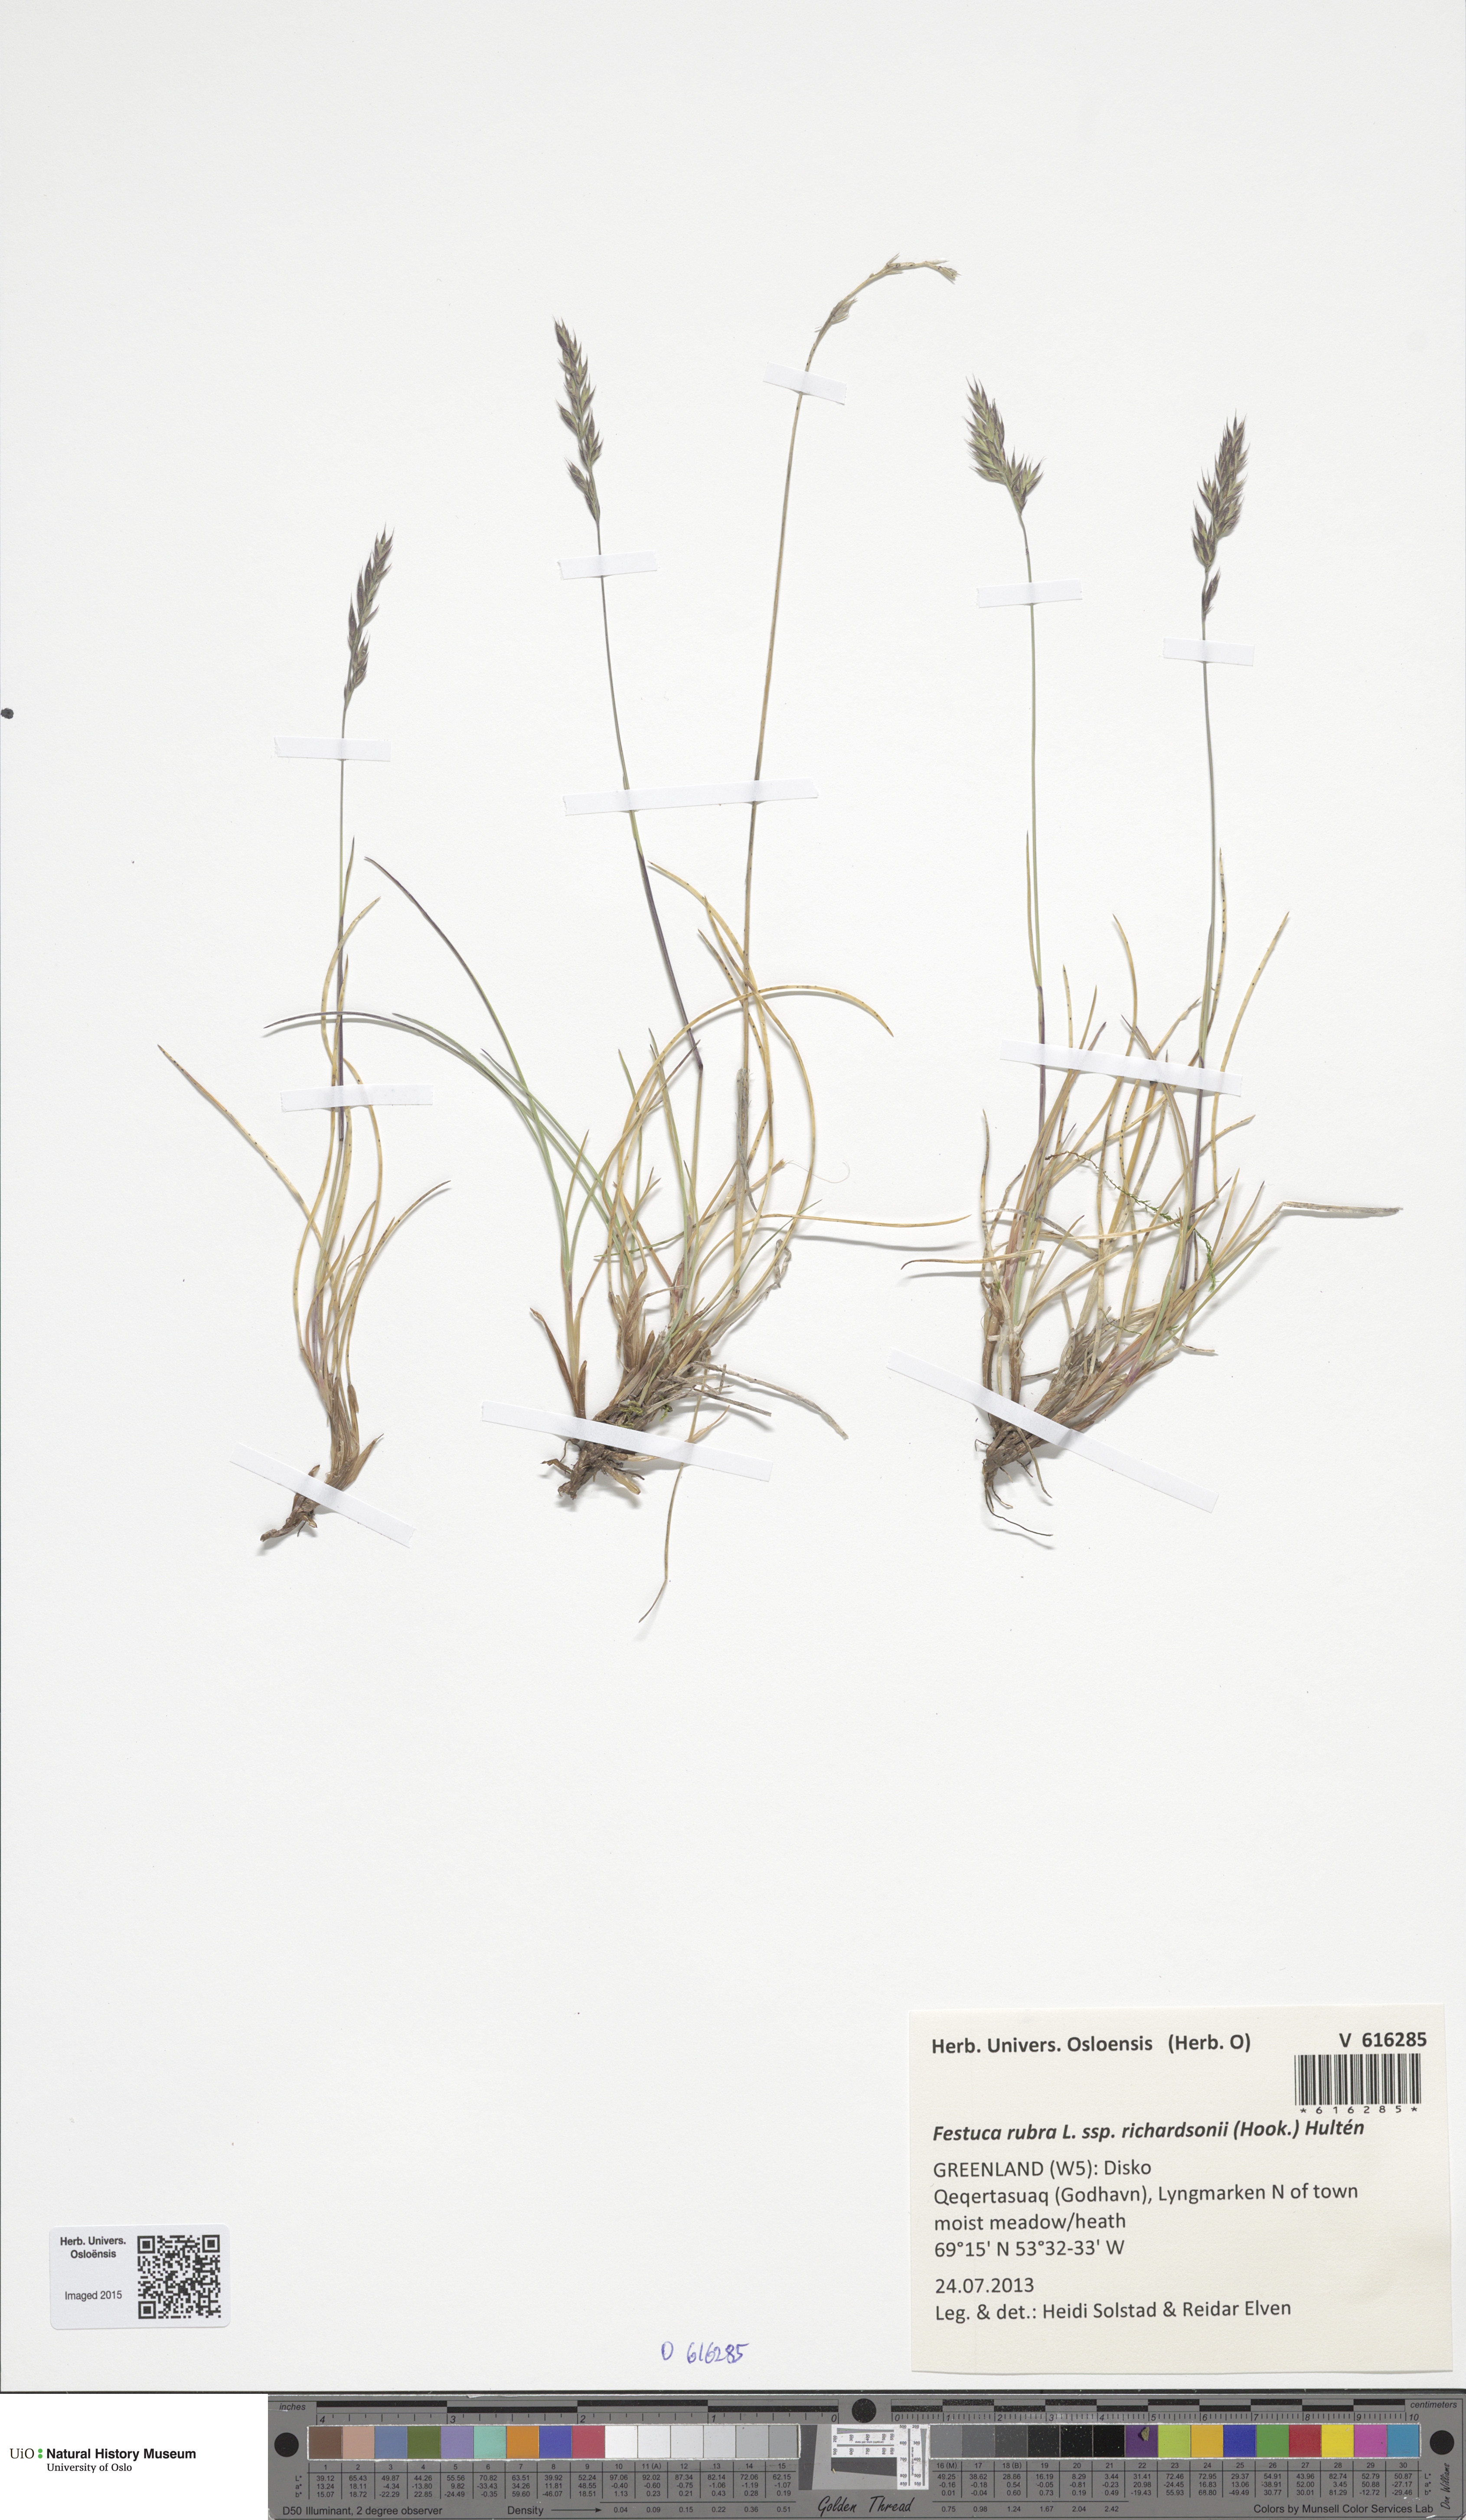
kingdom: Plantae
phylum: Tracheophyta
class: Liliopsida
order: Poales
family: Poaceae
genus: Festuca
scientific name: Festuca richardsonii
